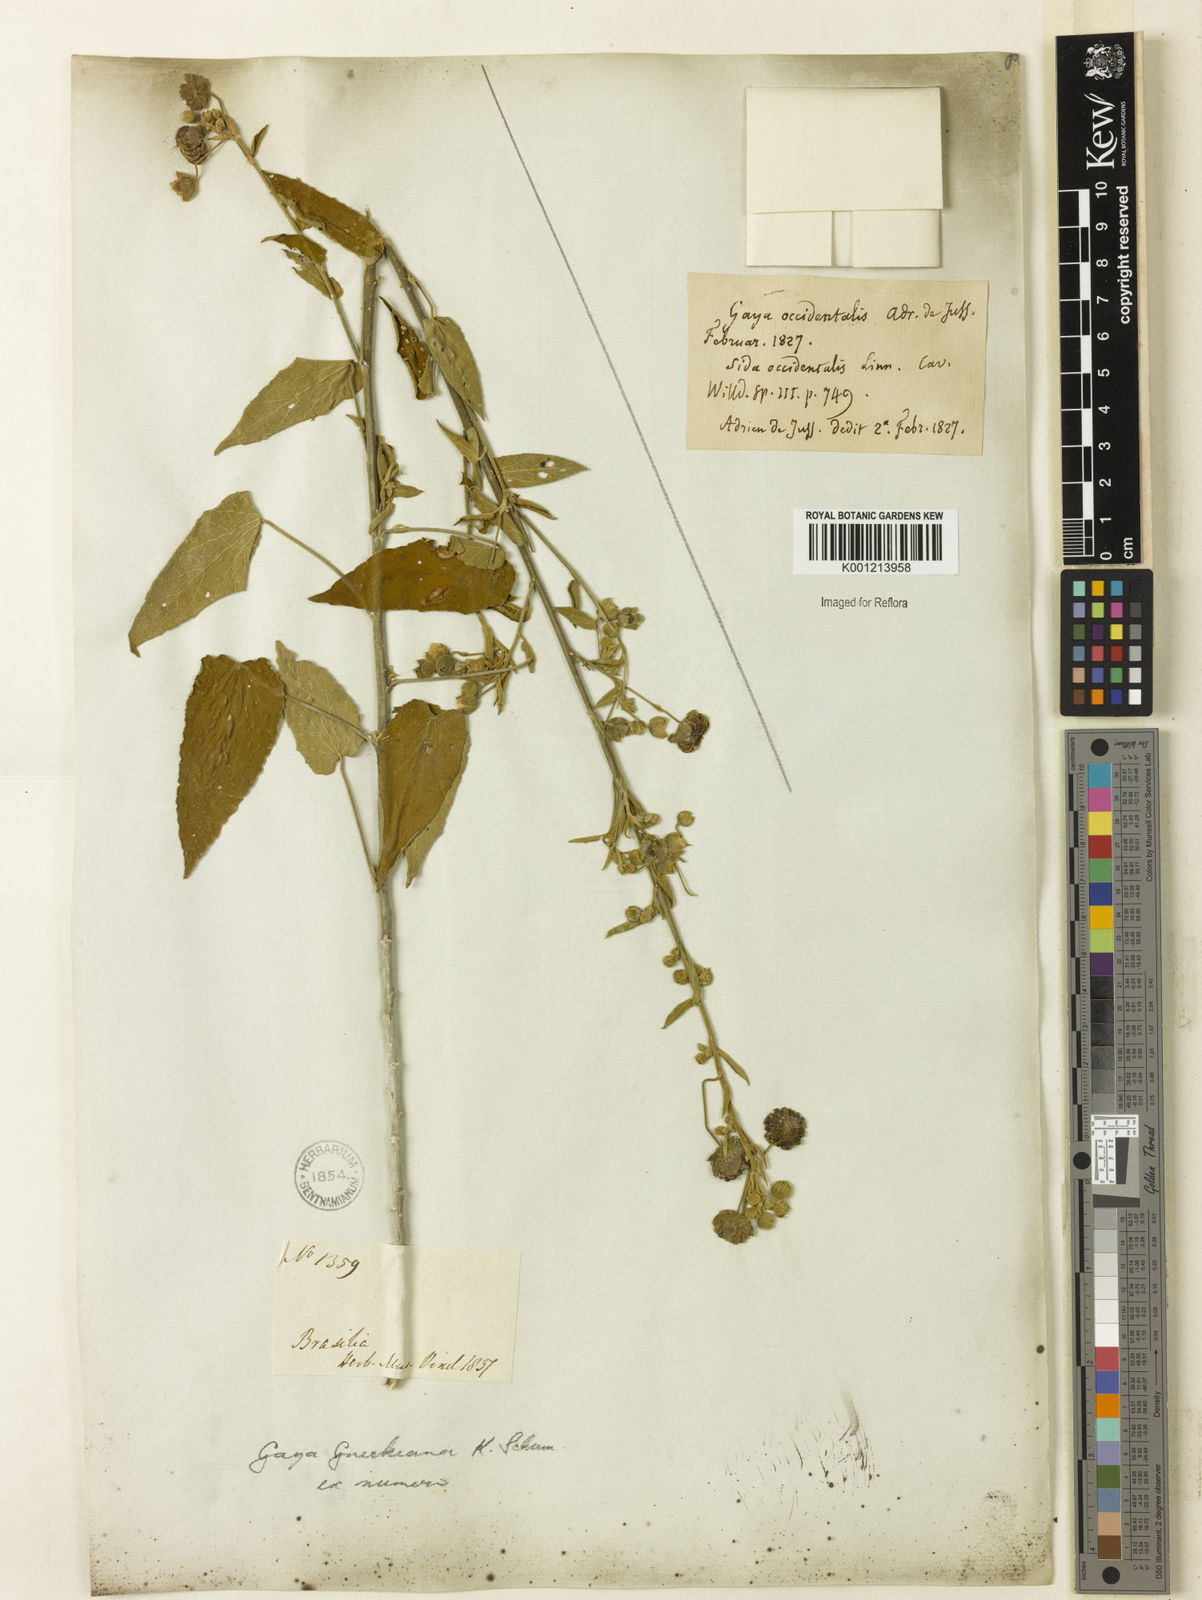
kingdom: Plantae
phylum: Tracheophyta
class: Magnoliopsida
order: Malvales
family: Malvaceae
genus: Gaya
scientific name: Gaya guerkeana
